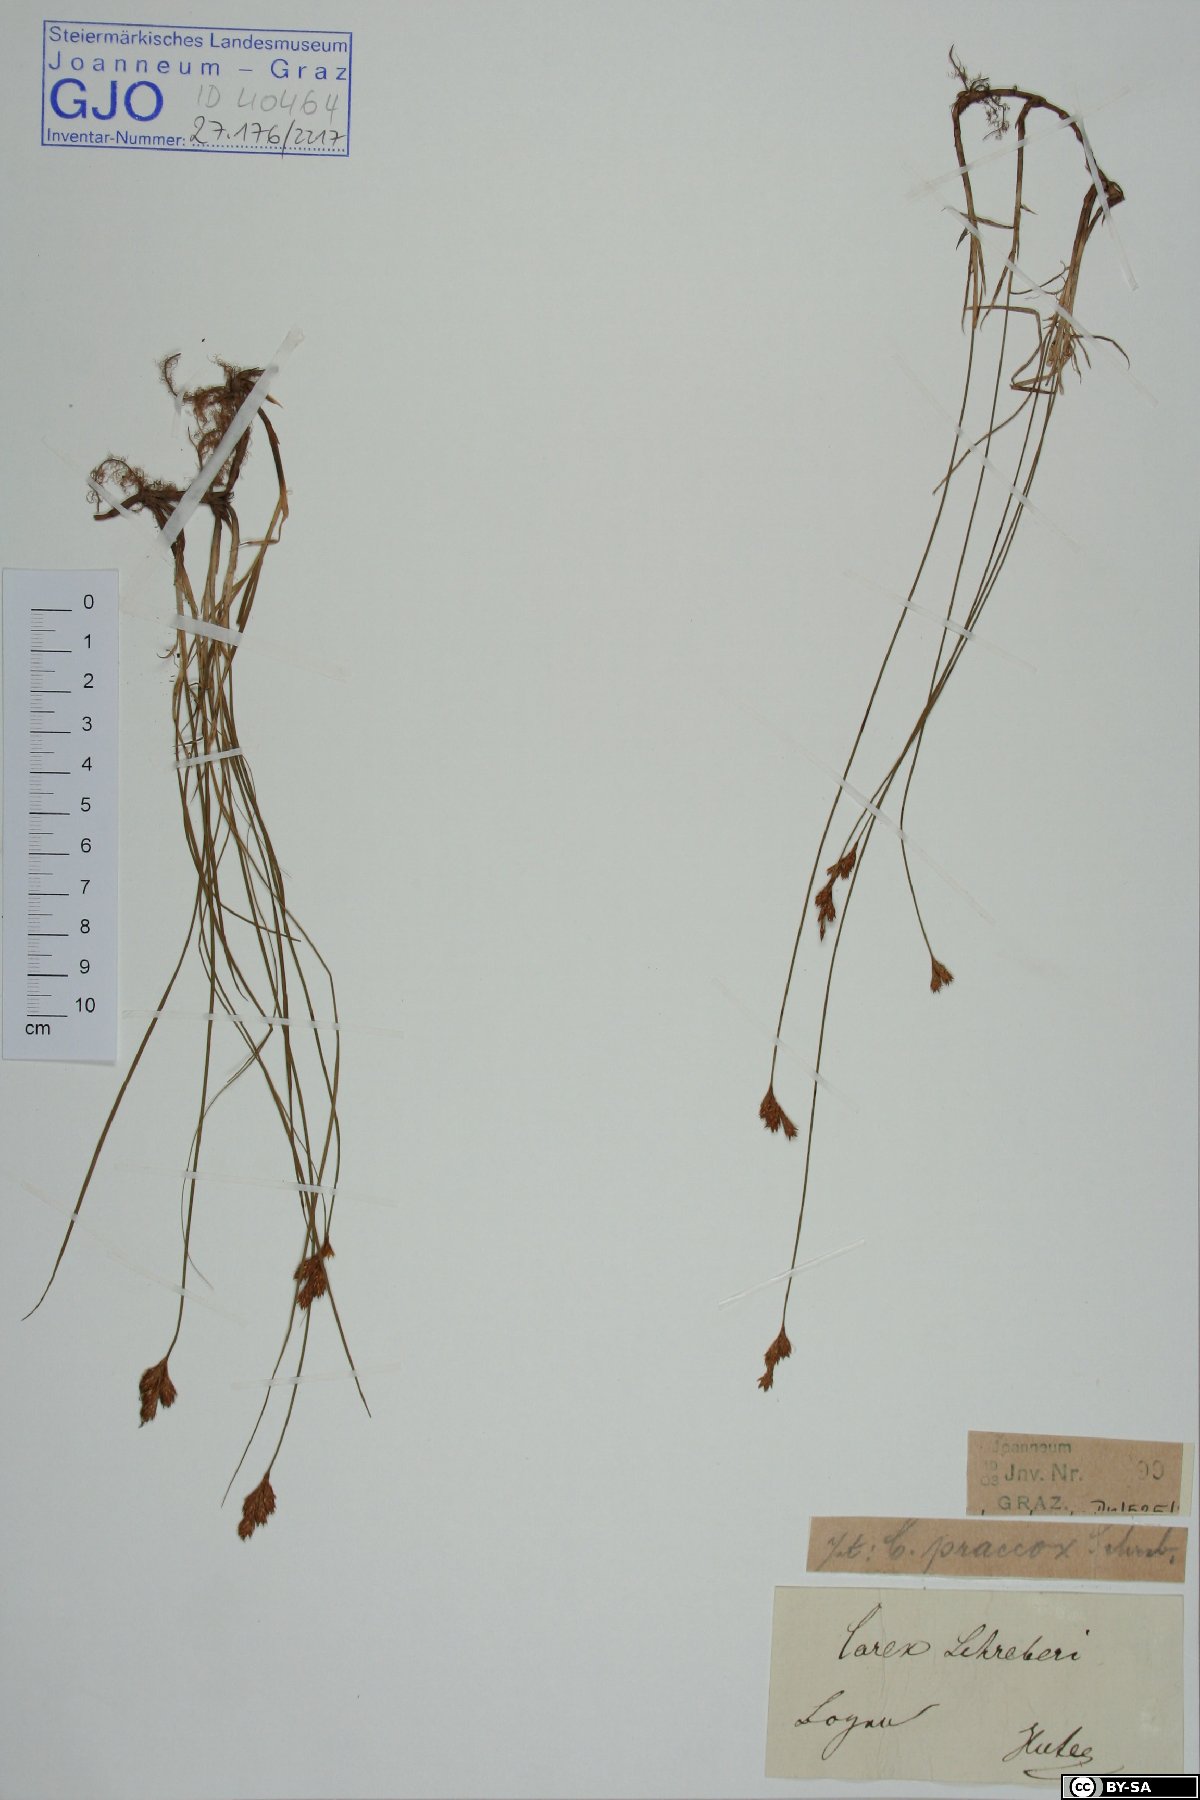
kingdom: Plantae
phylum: Tracheophyta
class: Liliopsida
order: Poales
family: Cyperaceae
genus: Carex
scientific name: Carex praecox
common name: Early sedge
